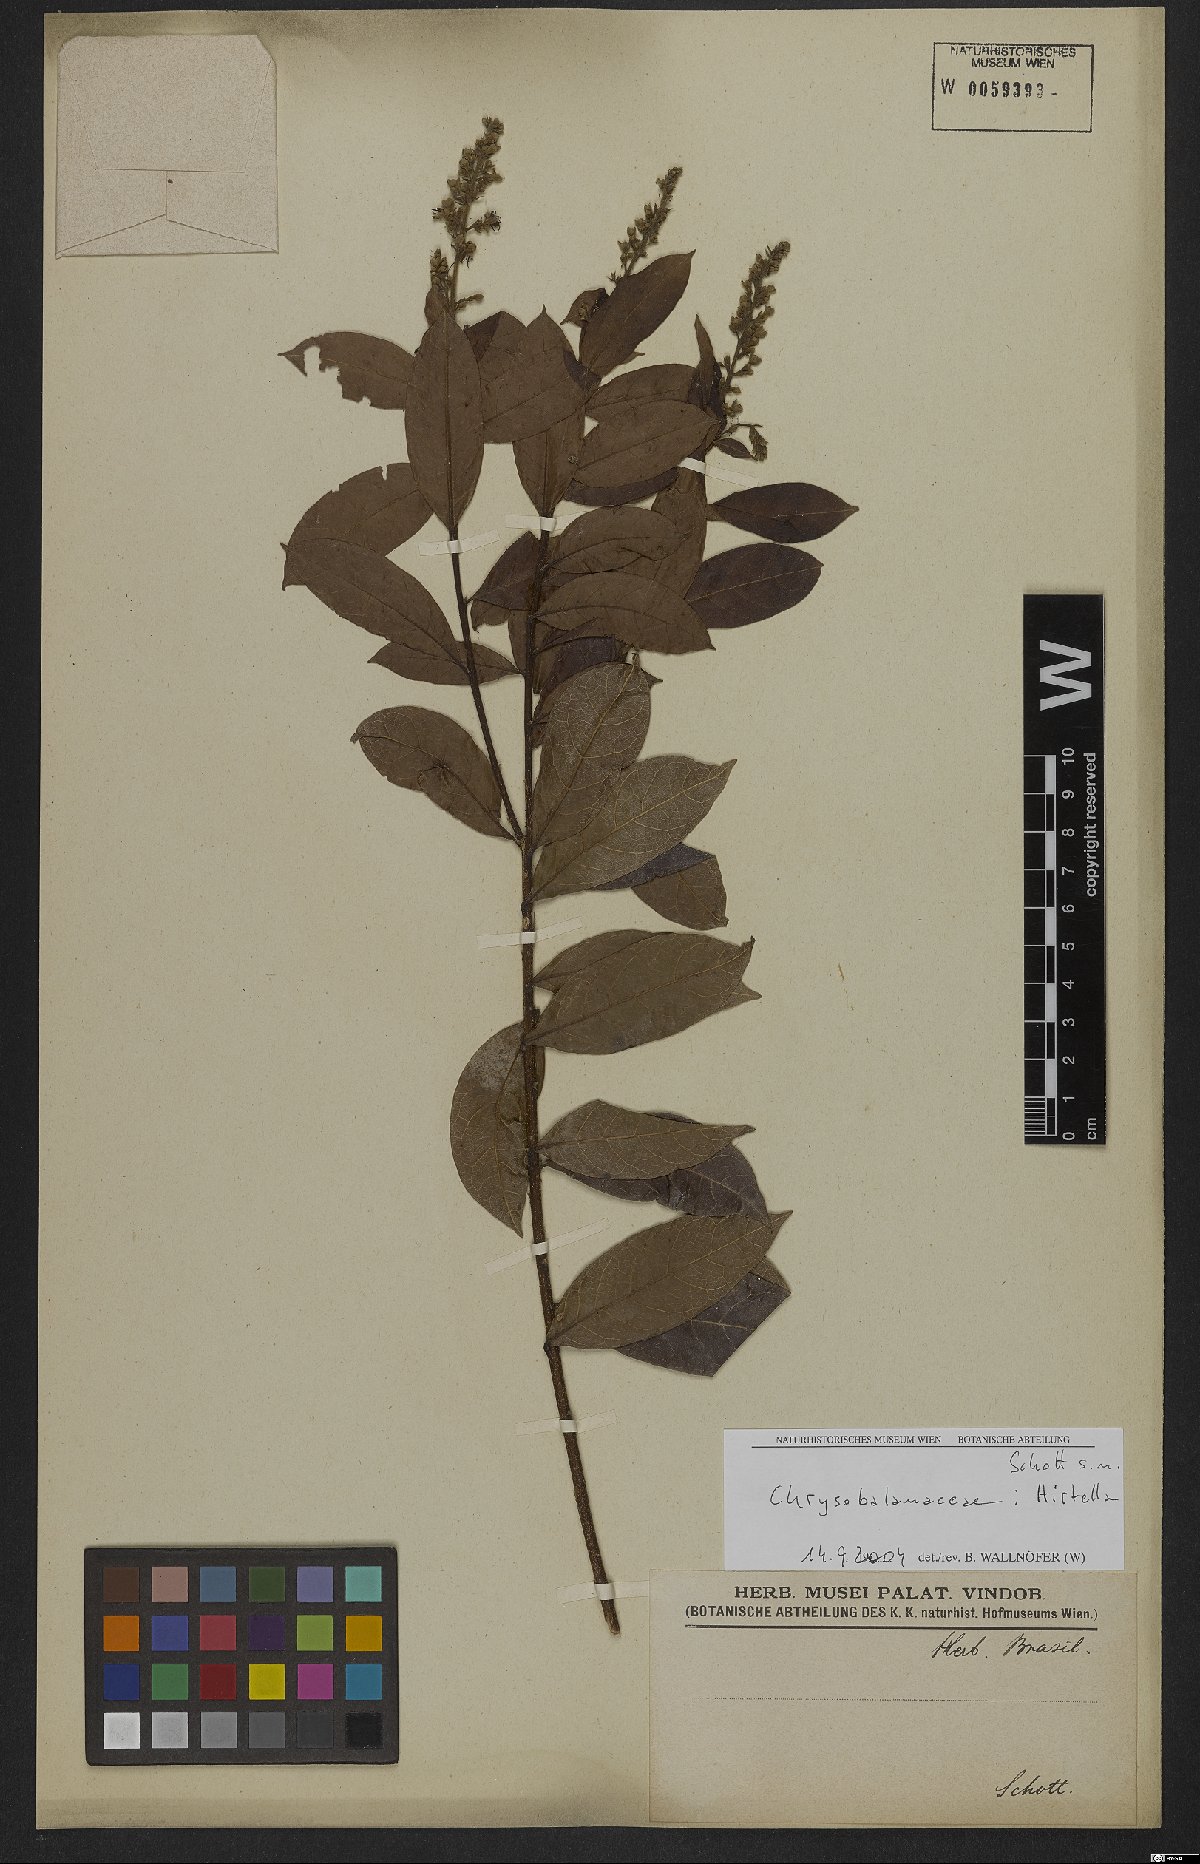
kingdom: Plantae
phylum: Tracheophyta
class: Magnoliopsida
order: Malpighiales
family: Chrysobalanaceae
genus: Hirtella
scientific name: Hirtella
